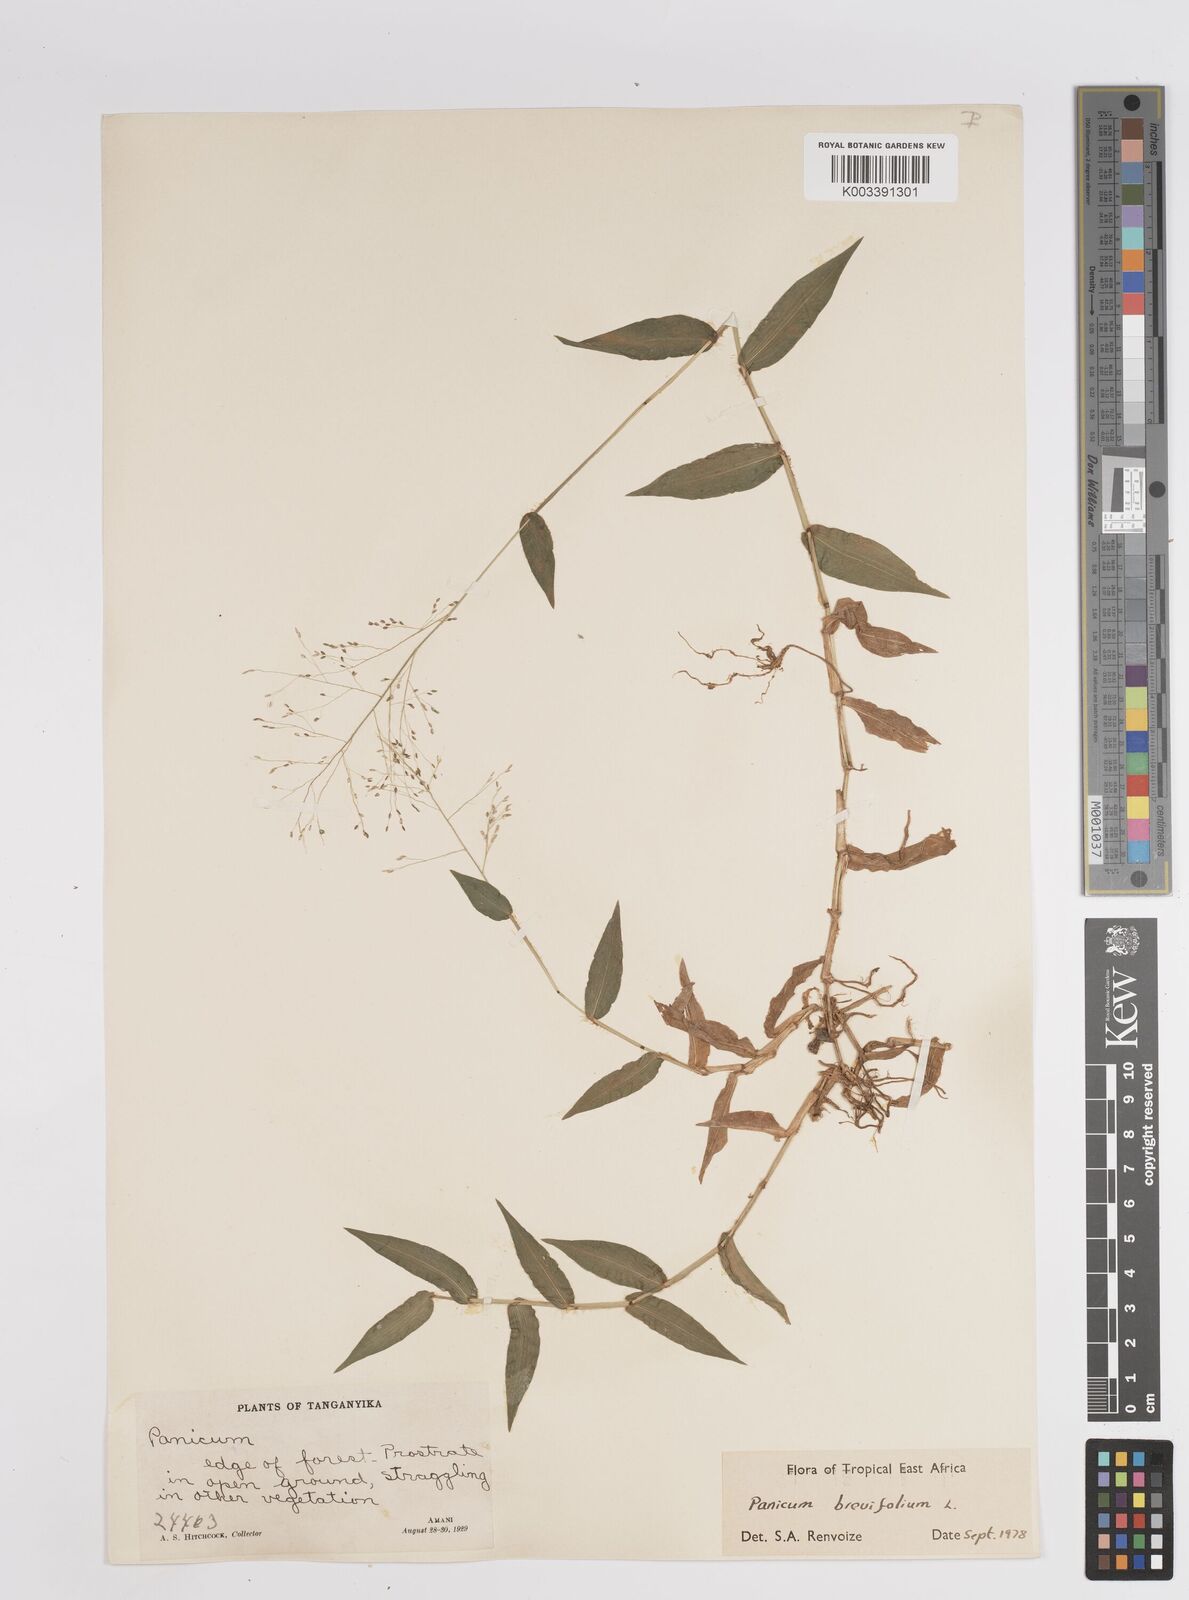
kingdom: Plantae
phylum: Tracheophyta
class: Liliopsida
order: Poales
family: Poaceae
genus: Panicum
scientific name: Panicum brevifolium
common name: Shortleaf panic grass
